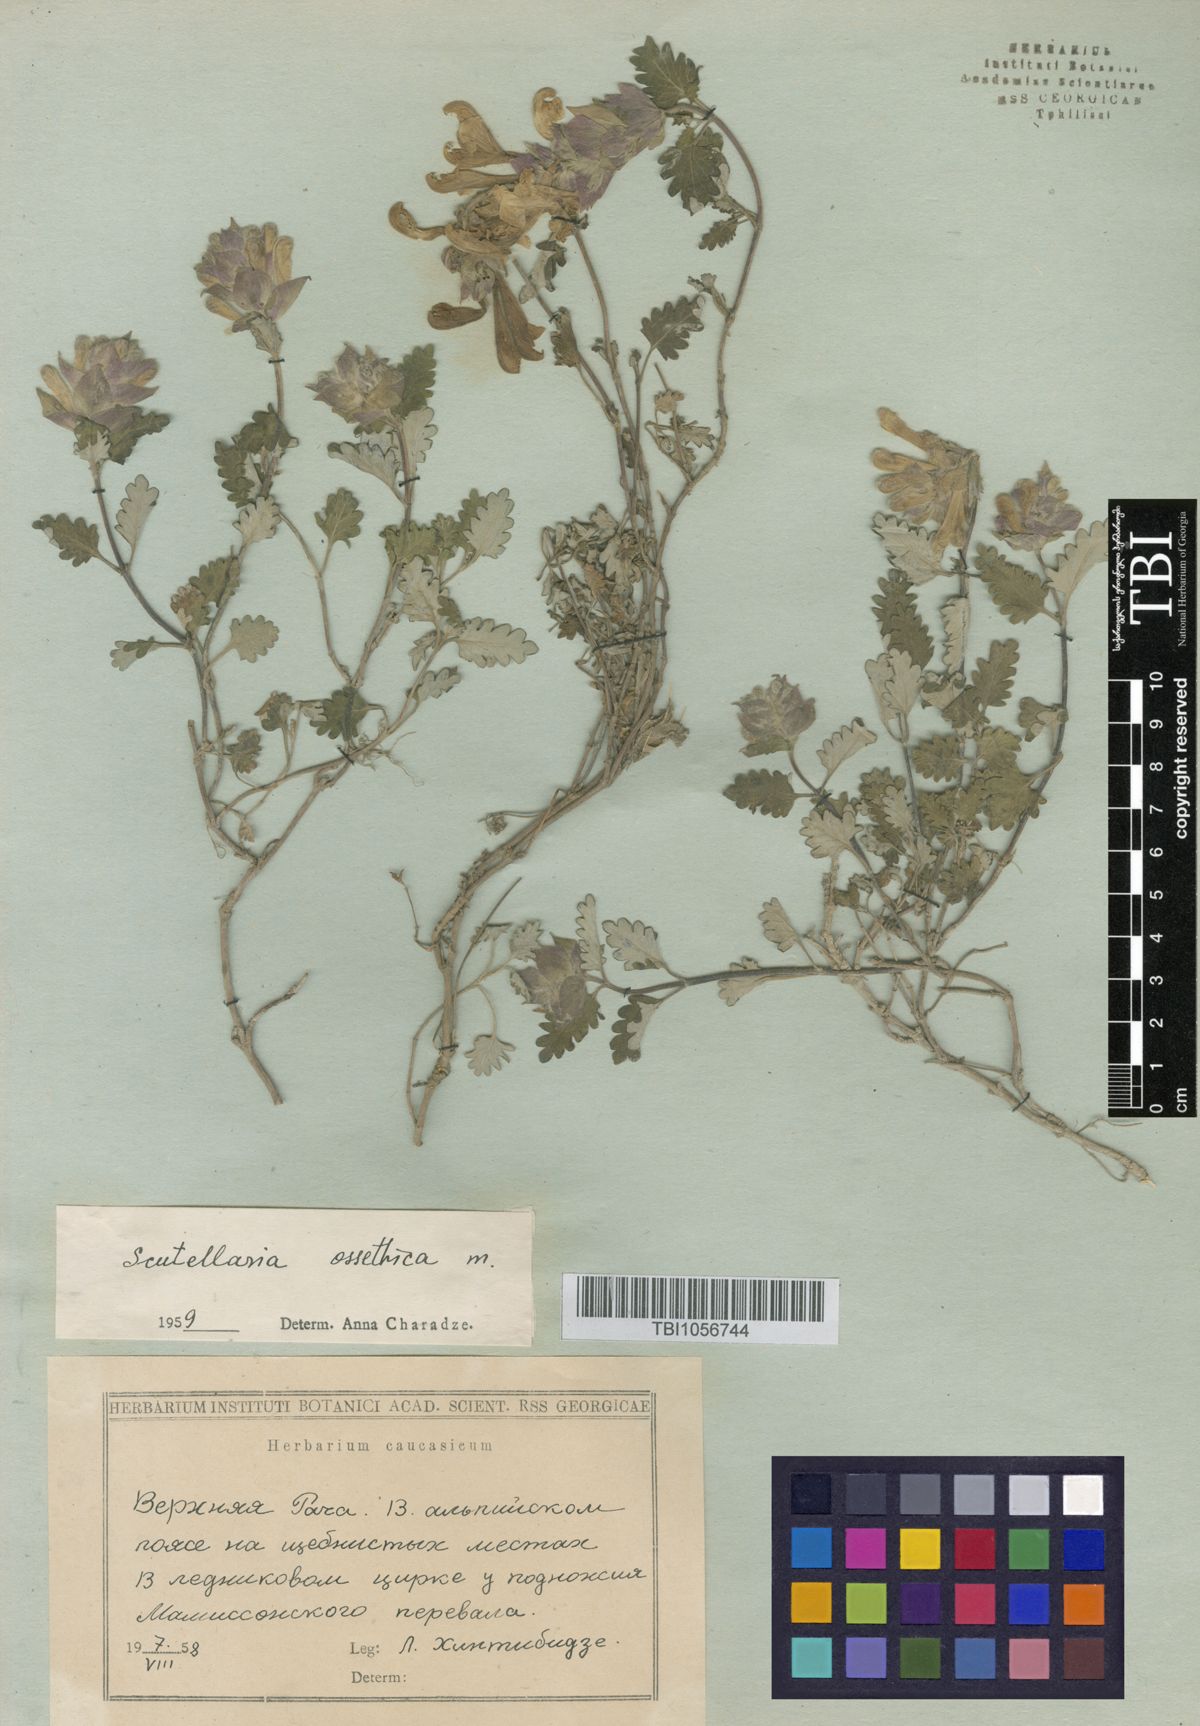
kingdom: Plantae
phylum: Tracheophyta
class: Magnoliopsida
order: Lamiales
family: Lamiaceae
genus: Scutellaria
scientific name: Scutellaria ossethica
